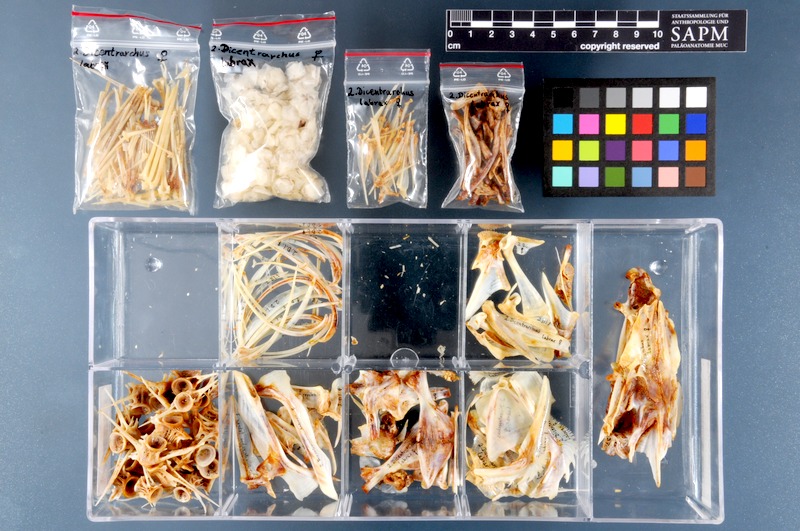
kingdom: Animalia
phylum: Chordata
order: Perciformes
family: Moronidae
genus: Dicentrarchus
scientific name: Dicentrarchus labrax
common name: European seabass
